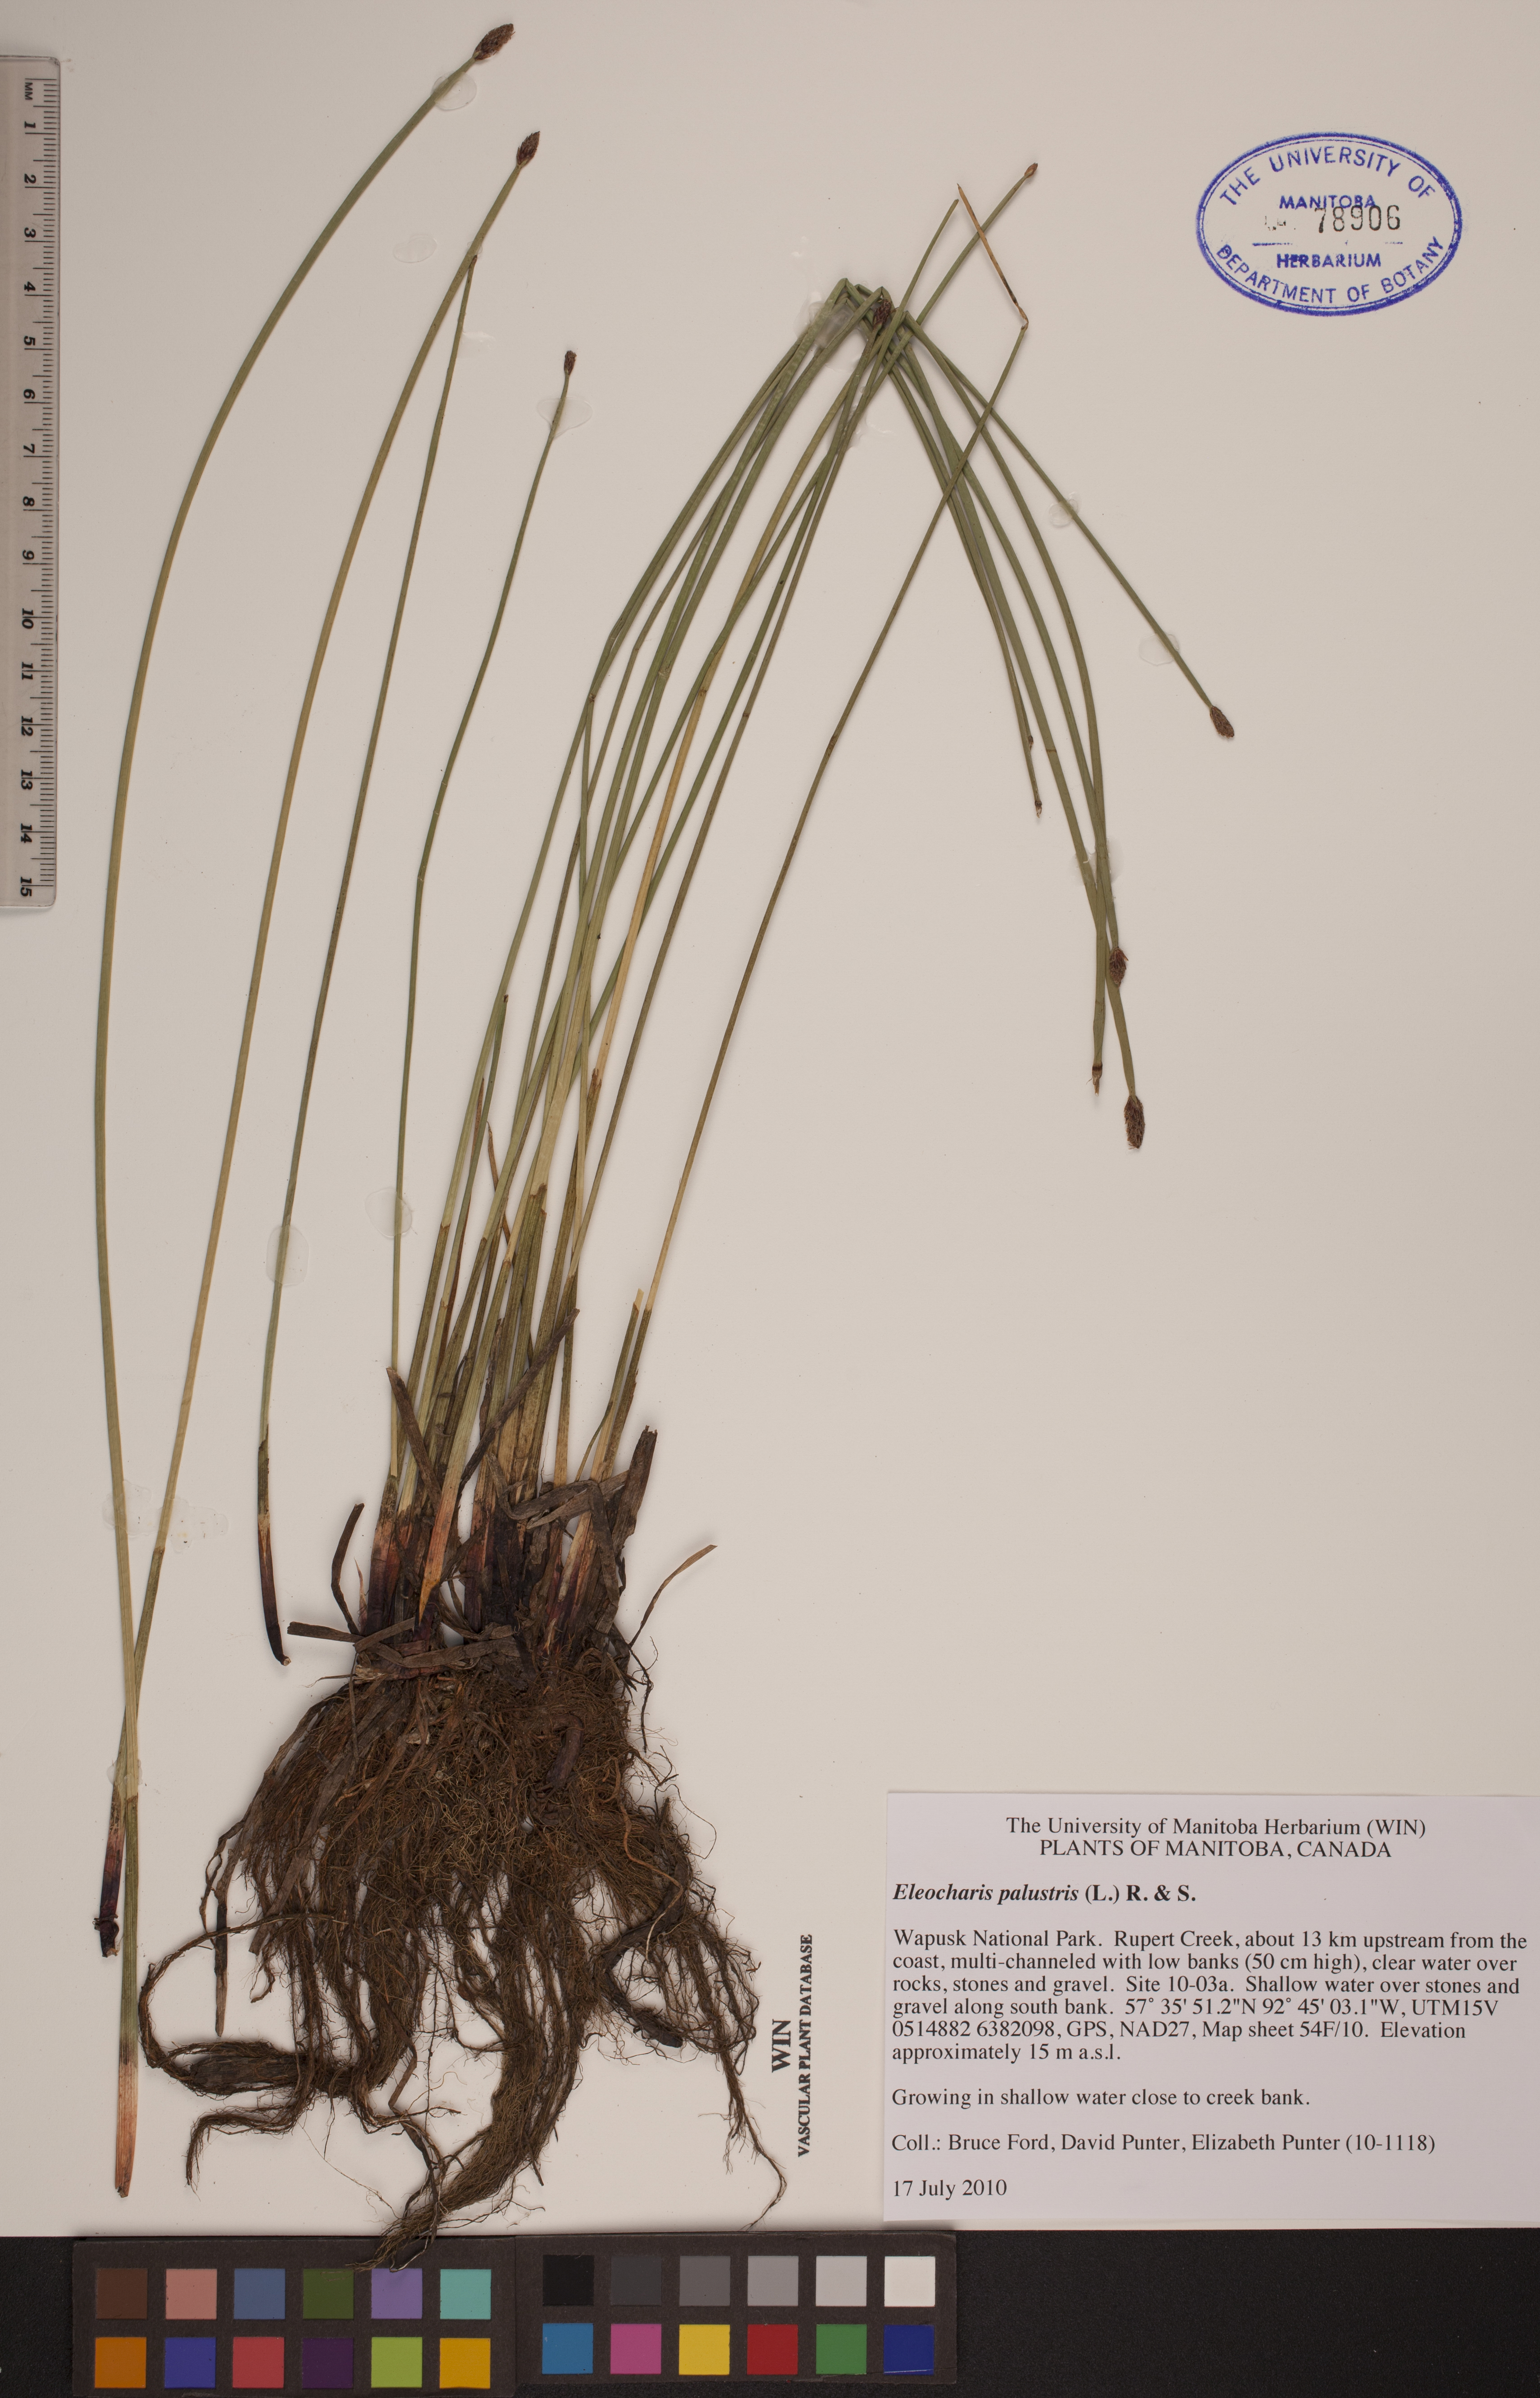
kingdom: Plantae
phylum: Tracheophyta
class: Liliopsida
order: Poales
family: Cyperaceae
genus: Eleocharis
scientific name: Eleocharis palustris
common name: Common spike-rush
